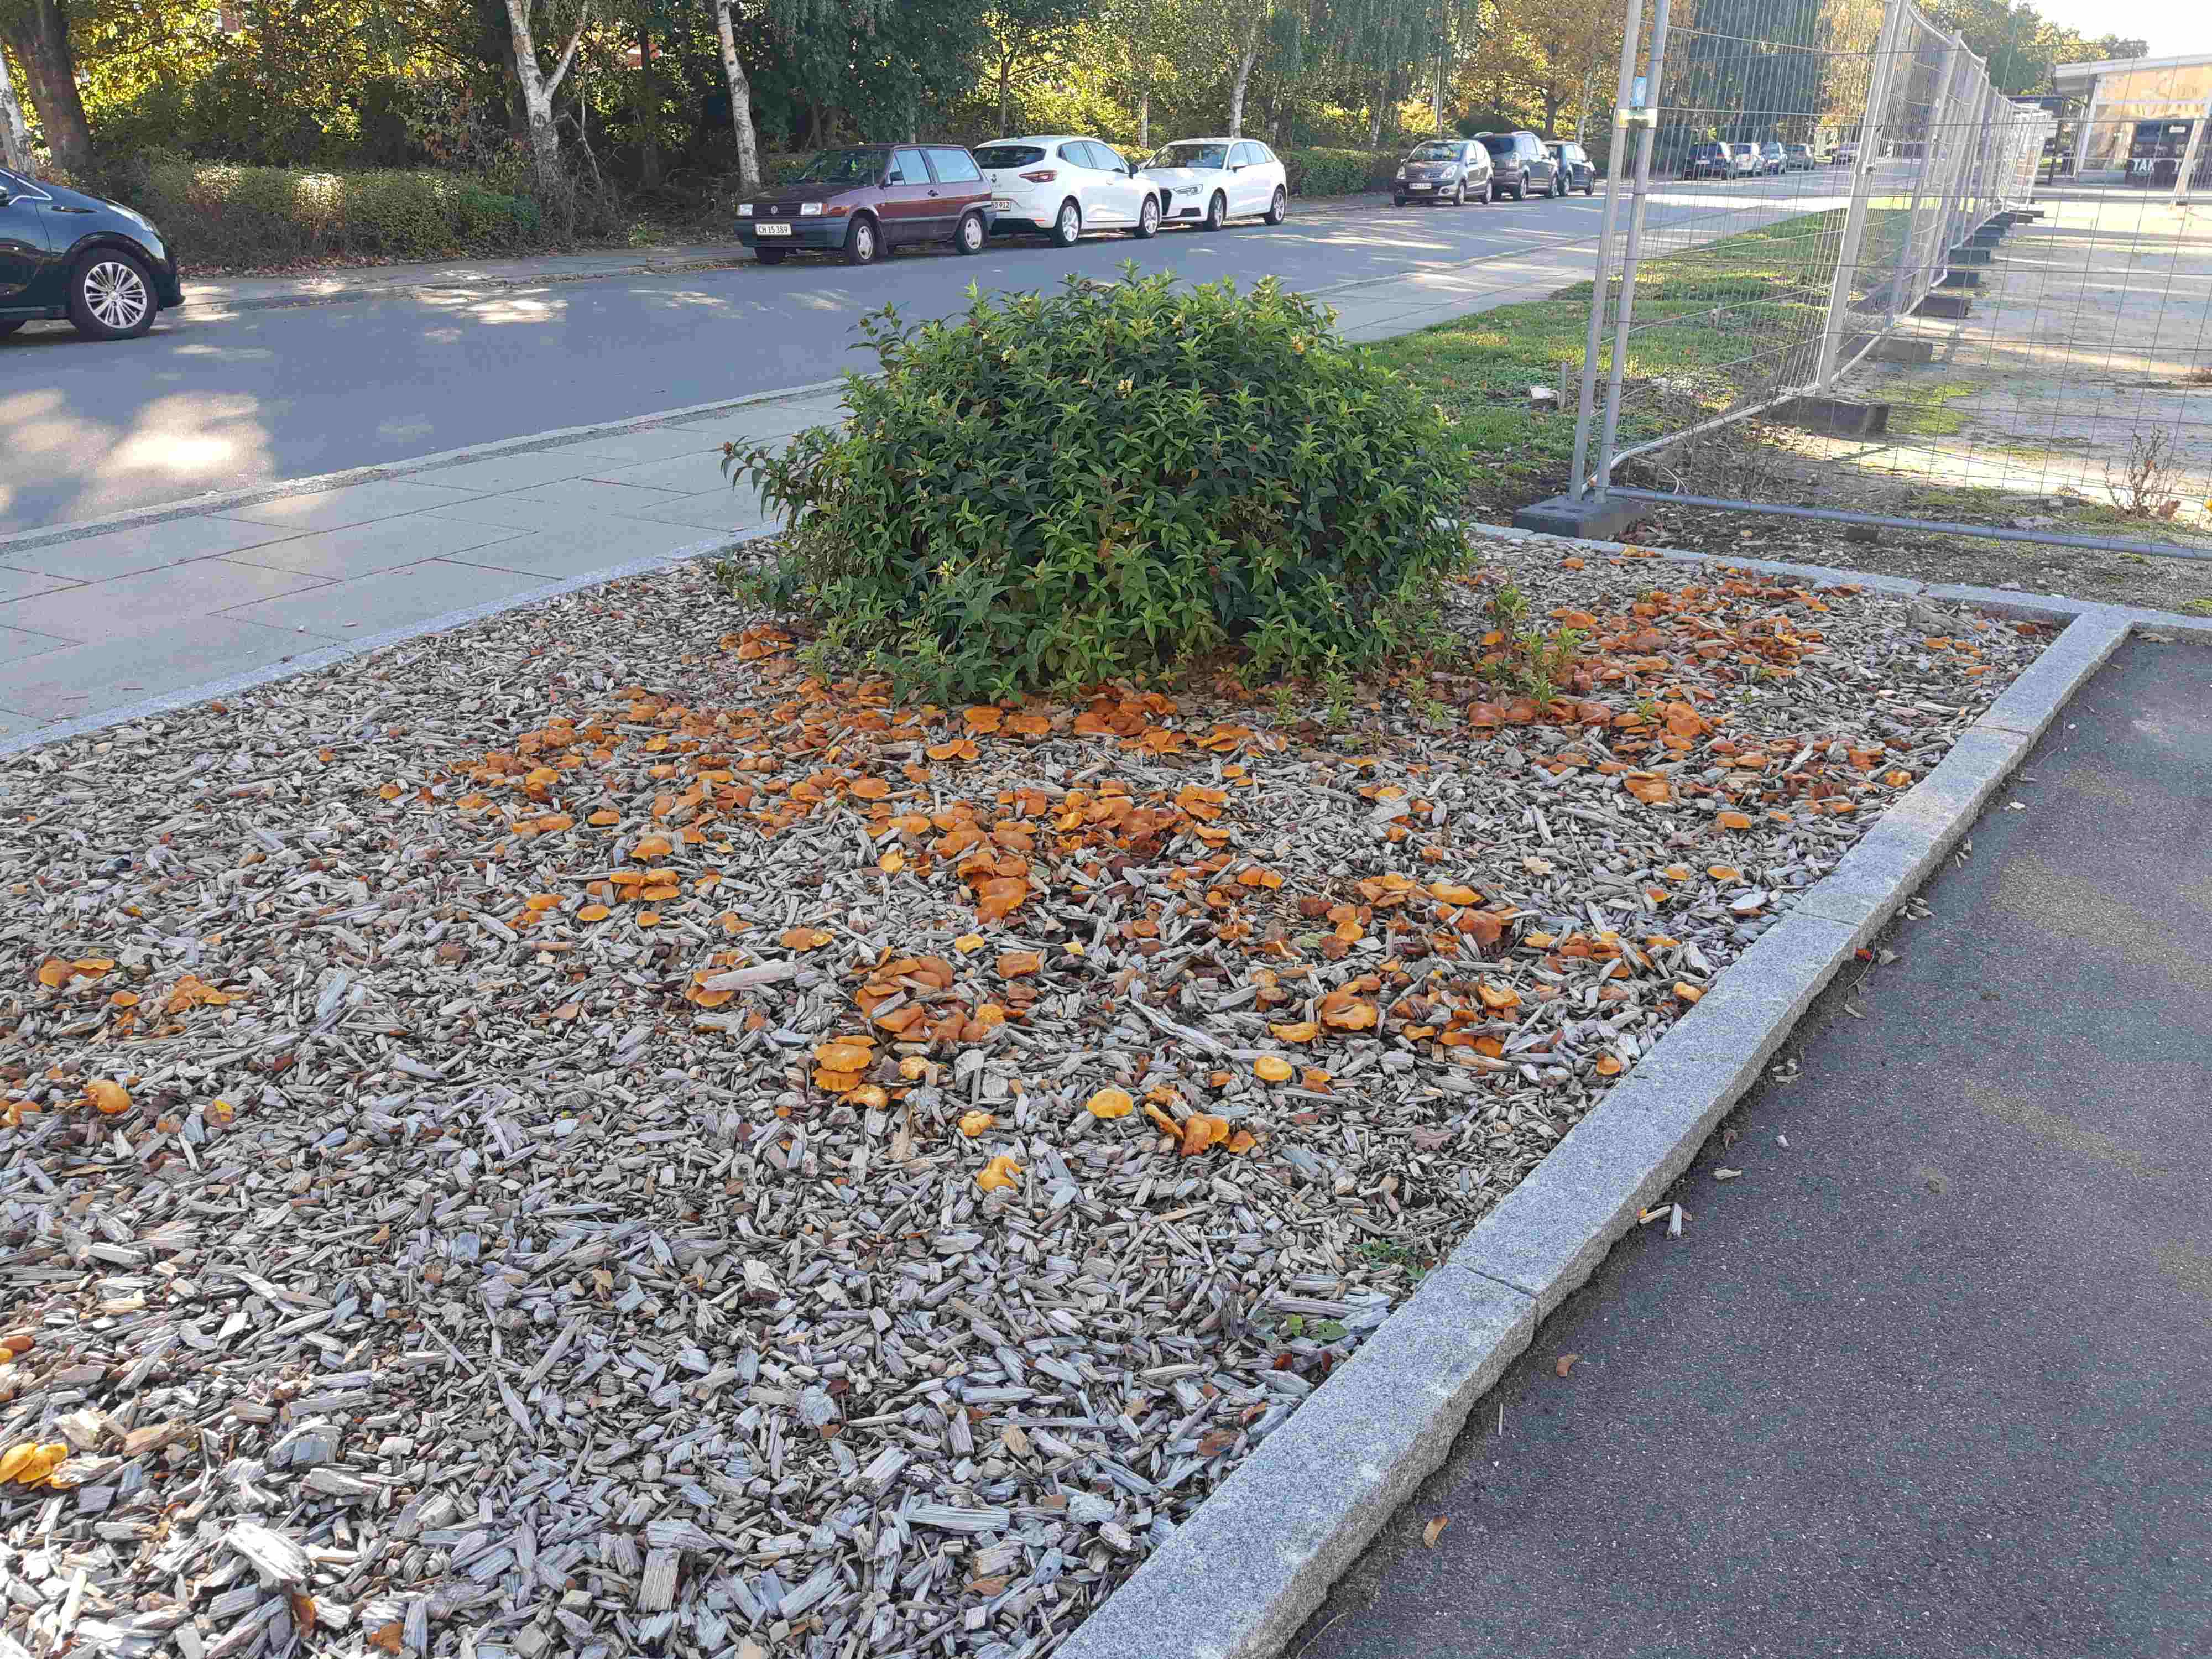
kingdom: Fungi
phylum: Basidiomycota
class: Agaricomycetes
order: Agaricales
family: Hymenogastraceae
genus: Gymnopilus
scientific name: Gymnopilus penetrans
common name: plettet flammehat
